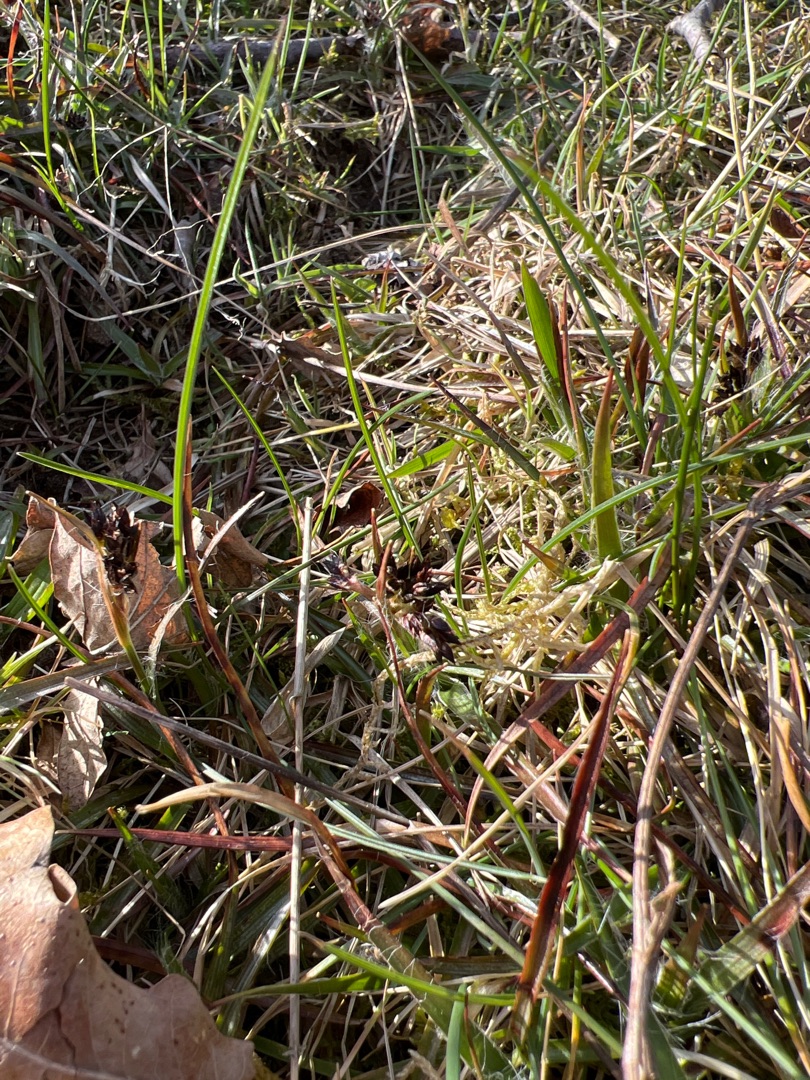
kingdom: Plantae
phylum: Tracheophyta
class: Liliopsida
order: Poales
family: Juncaceae
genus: Luzula
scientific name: Luzula campestris
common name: Mark-frytle
